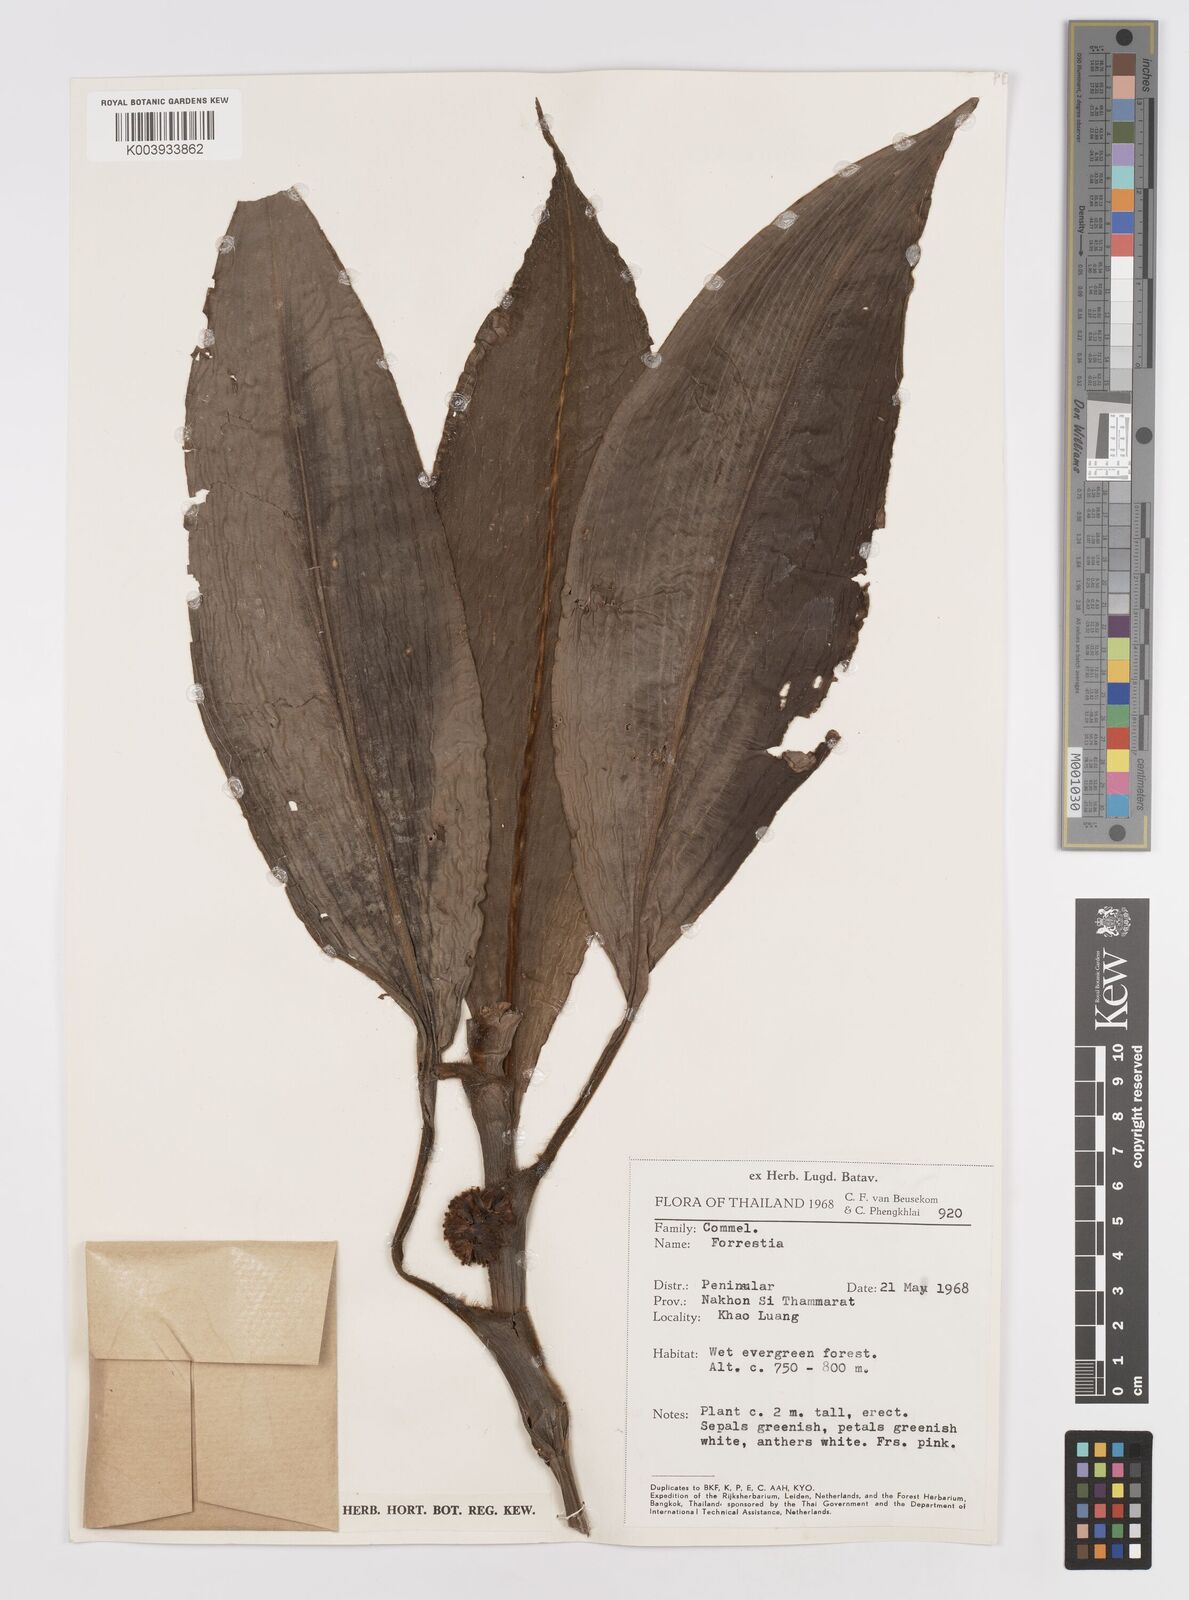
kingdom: Plantae
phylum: Tracheophyta
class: Liliopsida
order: Commelinales
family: Commelinaceae
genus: Amischotolype
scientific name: Amischotolype
